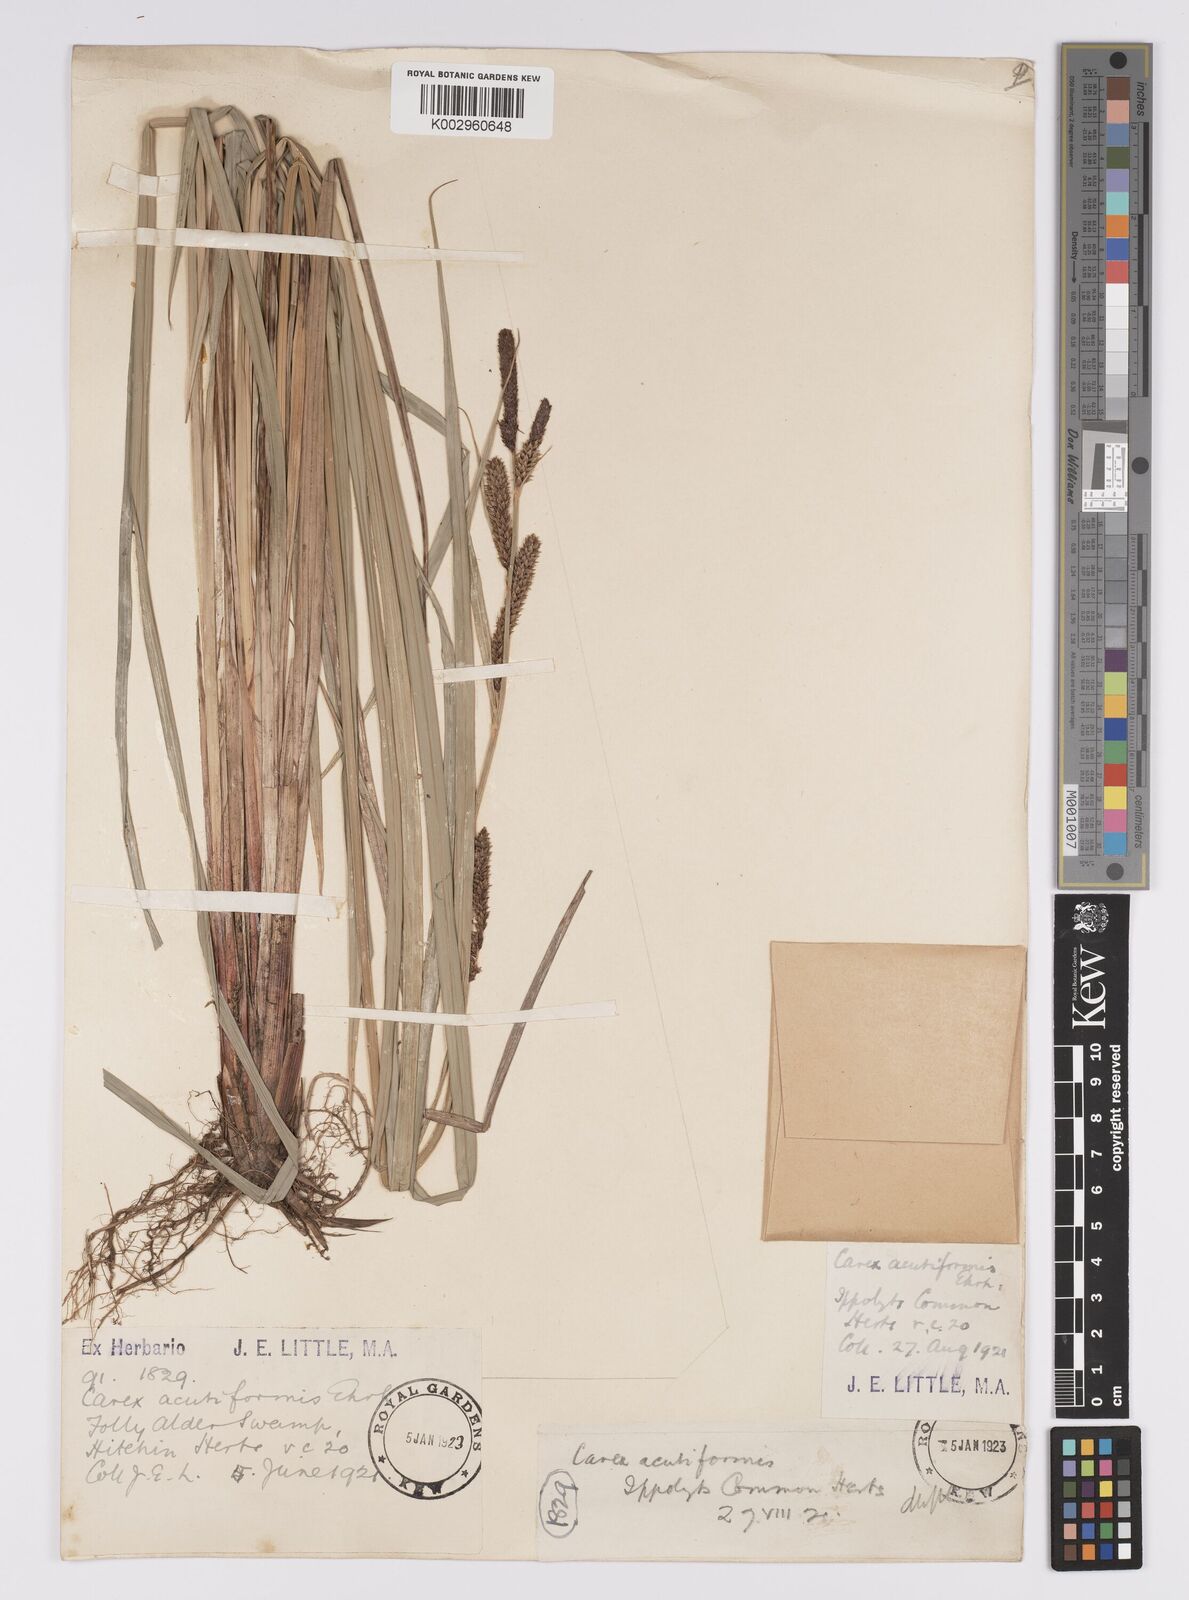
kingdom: Plantae
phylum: Tracheophyta
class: Liliopsida
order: Poales
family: Cyperaceae
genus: Carex
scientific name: Carex acutiformis
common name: Lesser pond-sedge
